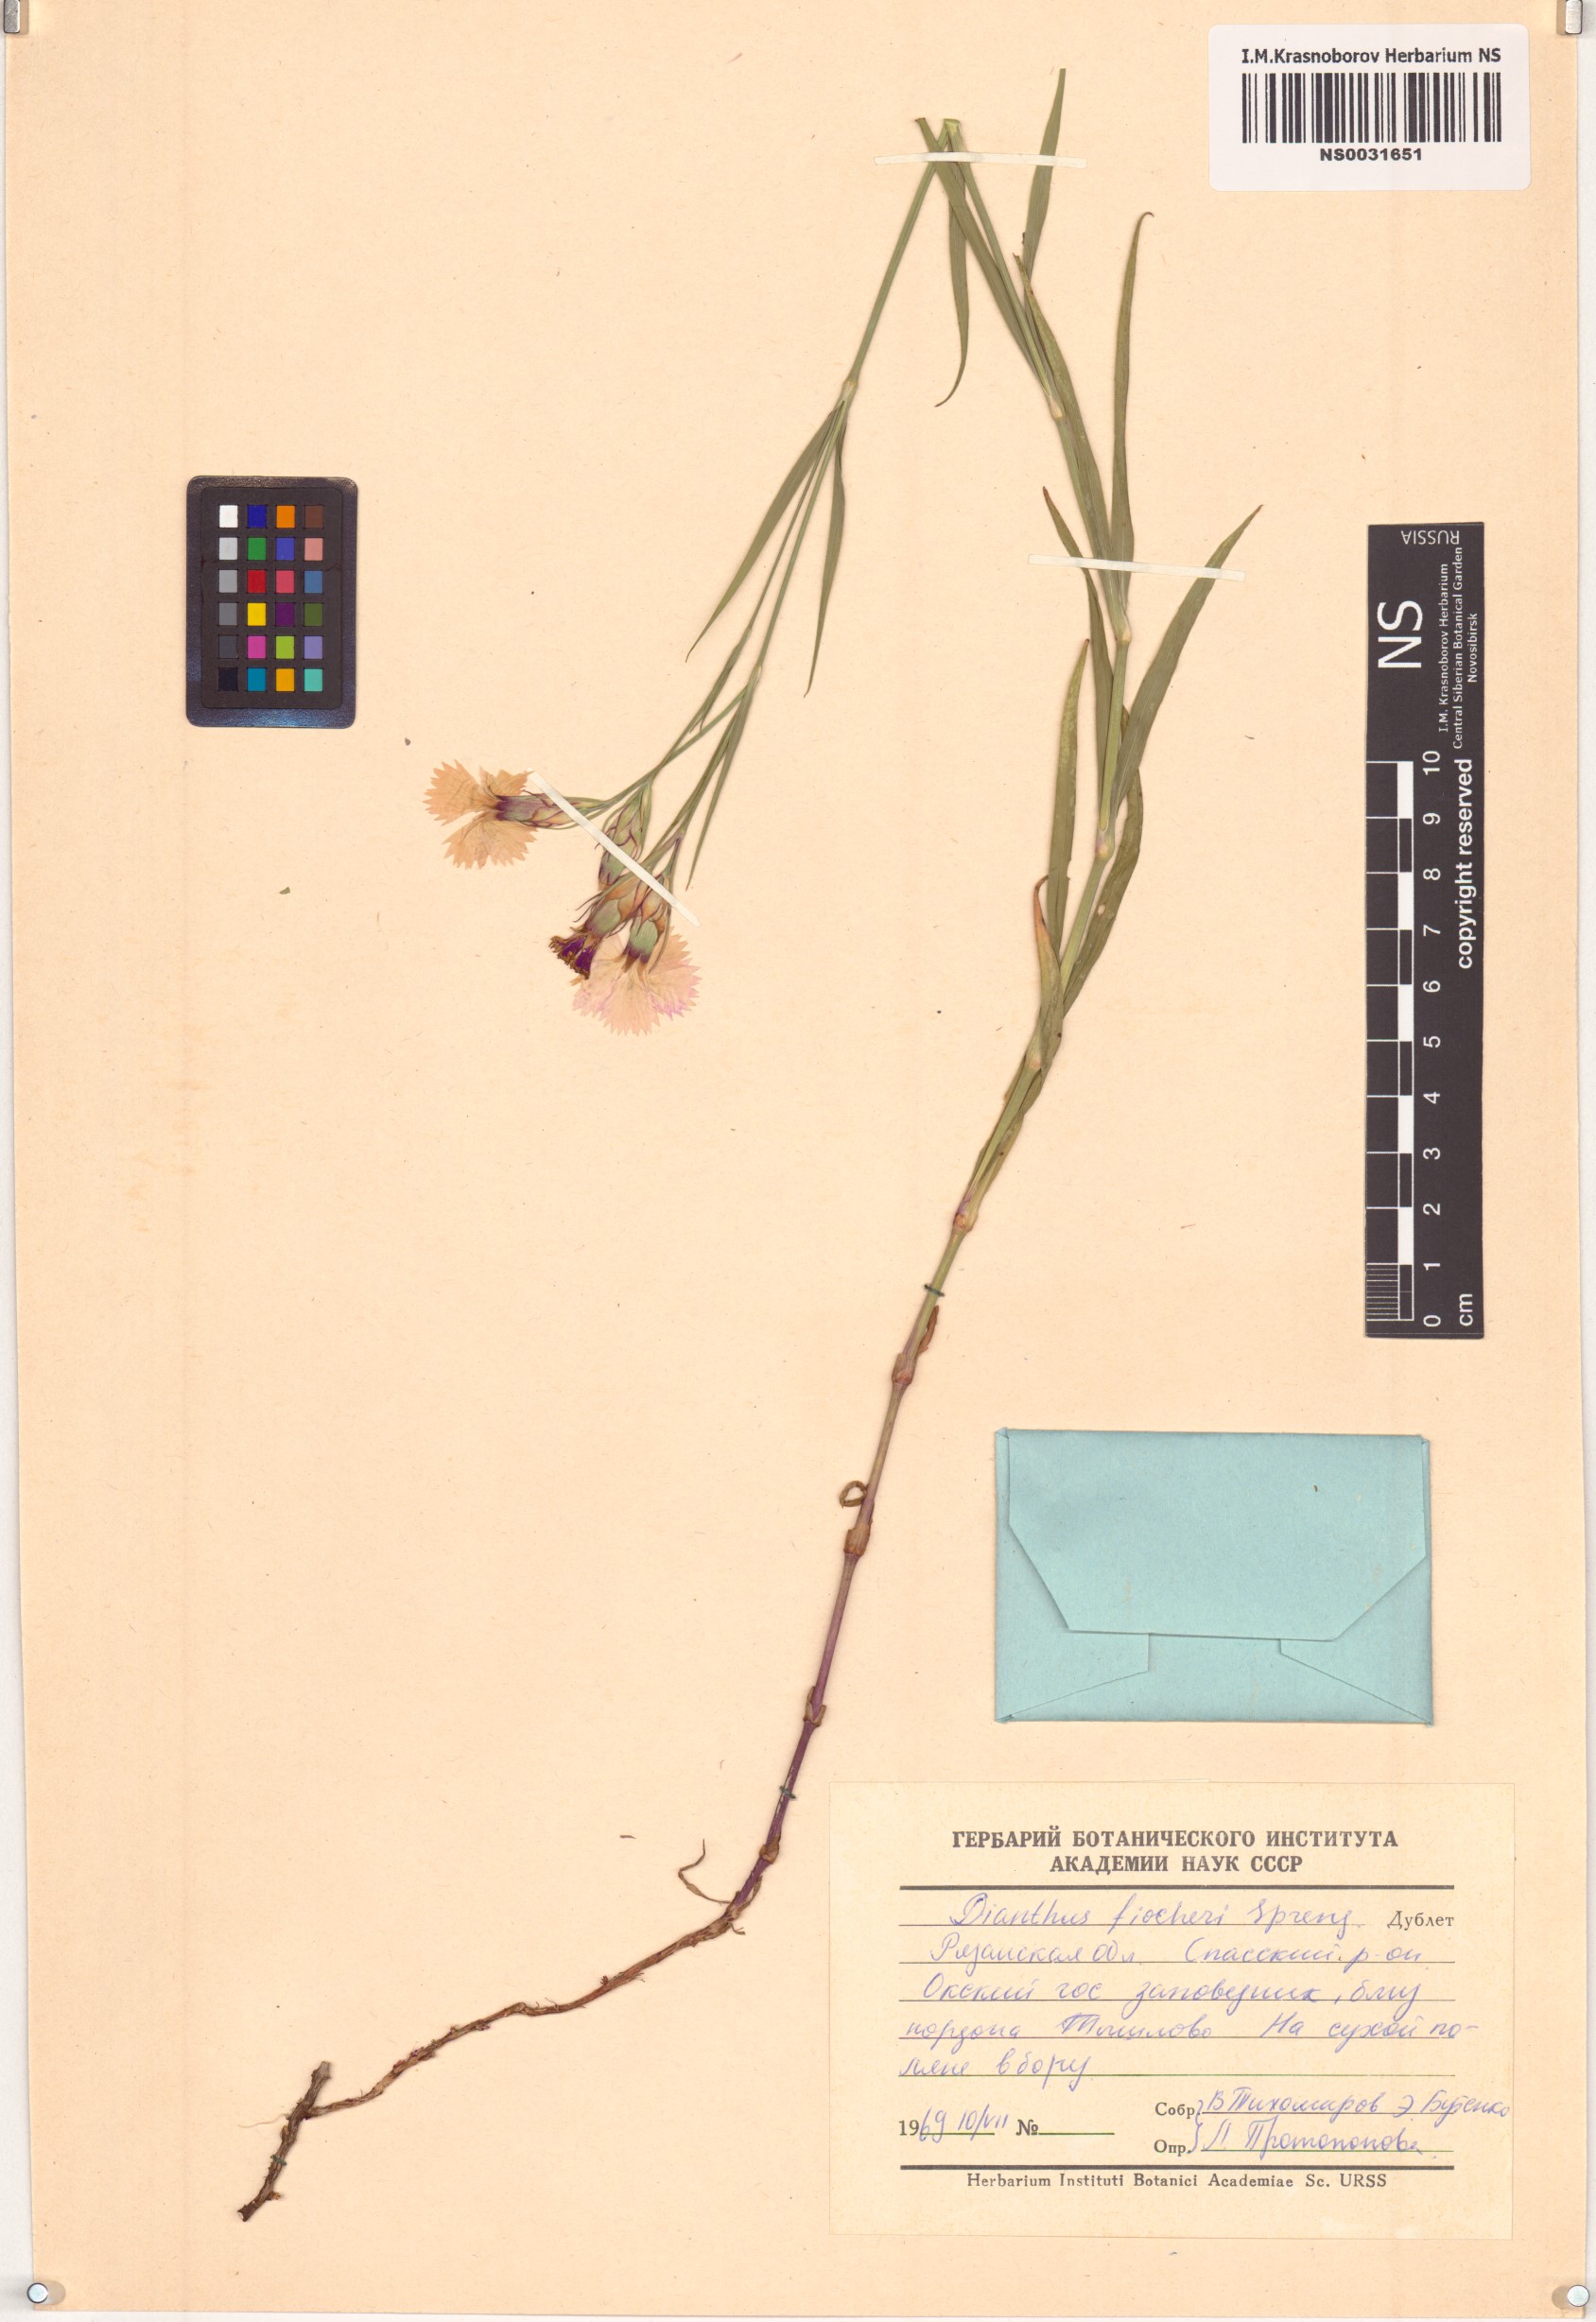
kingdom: Plantae
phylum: Tracheophyta
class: Magnoliopsida
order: Caryophyllales
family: Caryophyllaceae
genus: Dianthus
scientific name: Dianthus chinensis
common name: Rainbow pink
